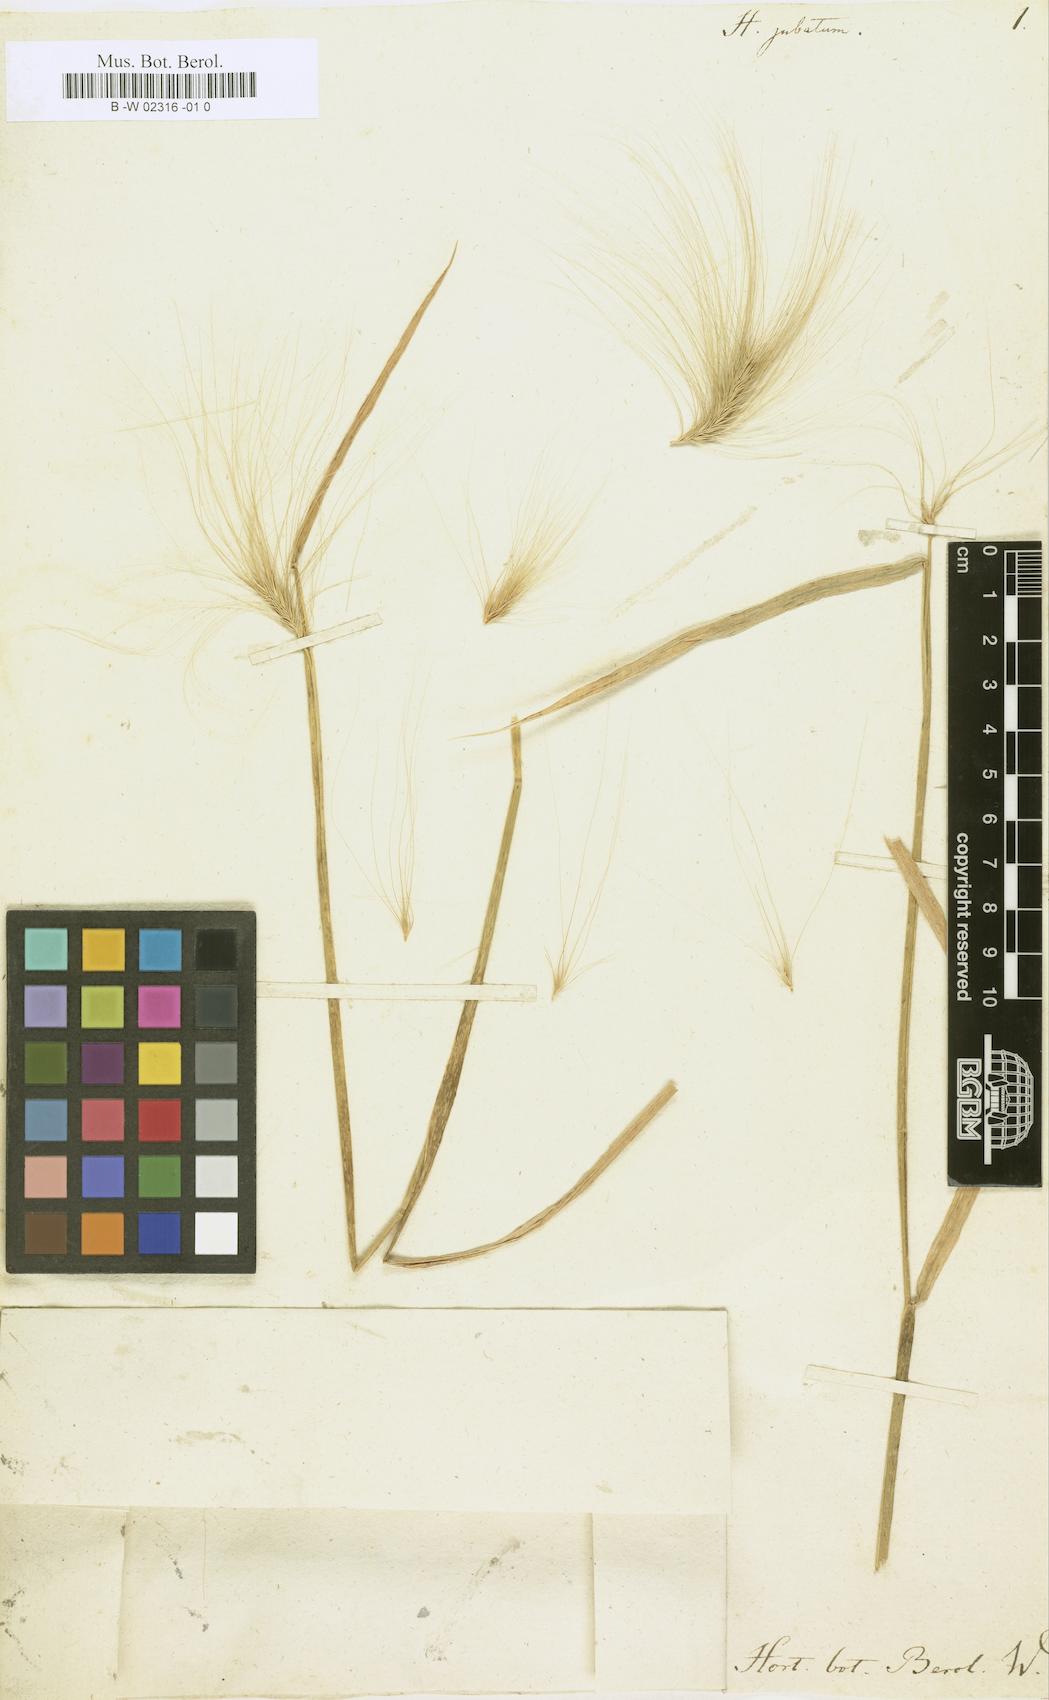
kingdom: Plantae
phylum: Tracheophyta
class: Liliopsida
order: Poales
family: Poaceae
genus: Hordeum
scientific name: Hordeum jubatum
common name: Foxtail barley
